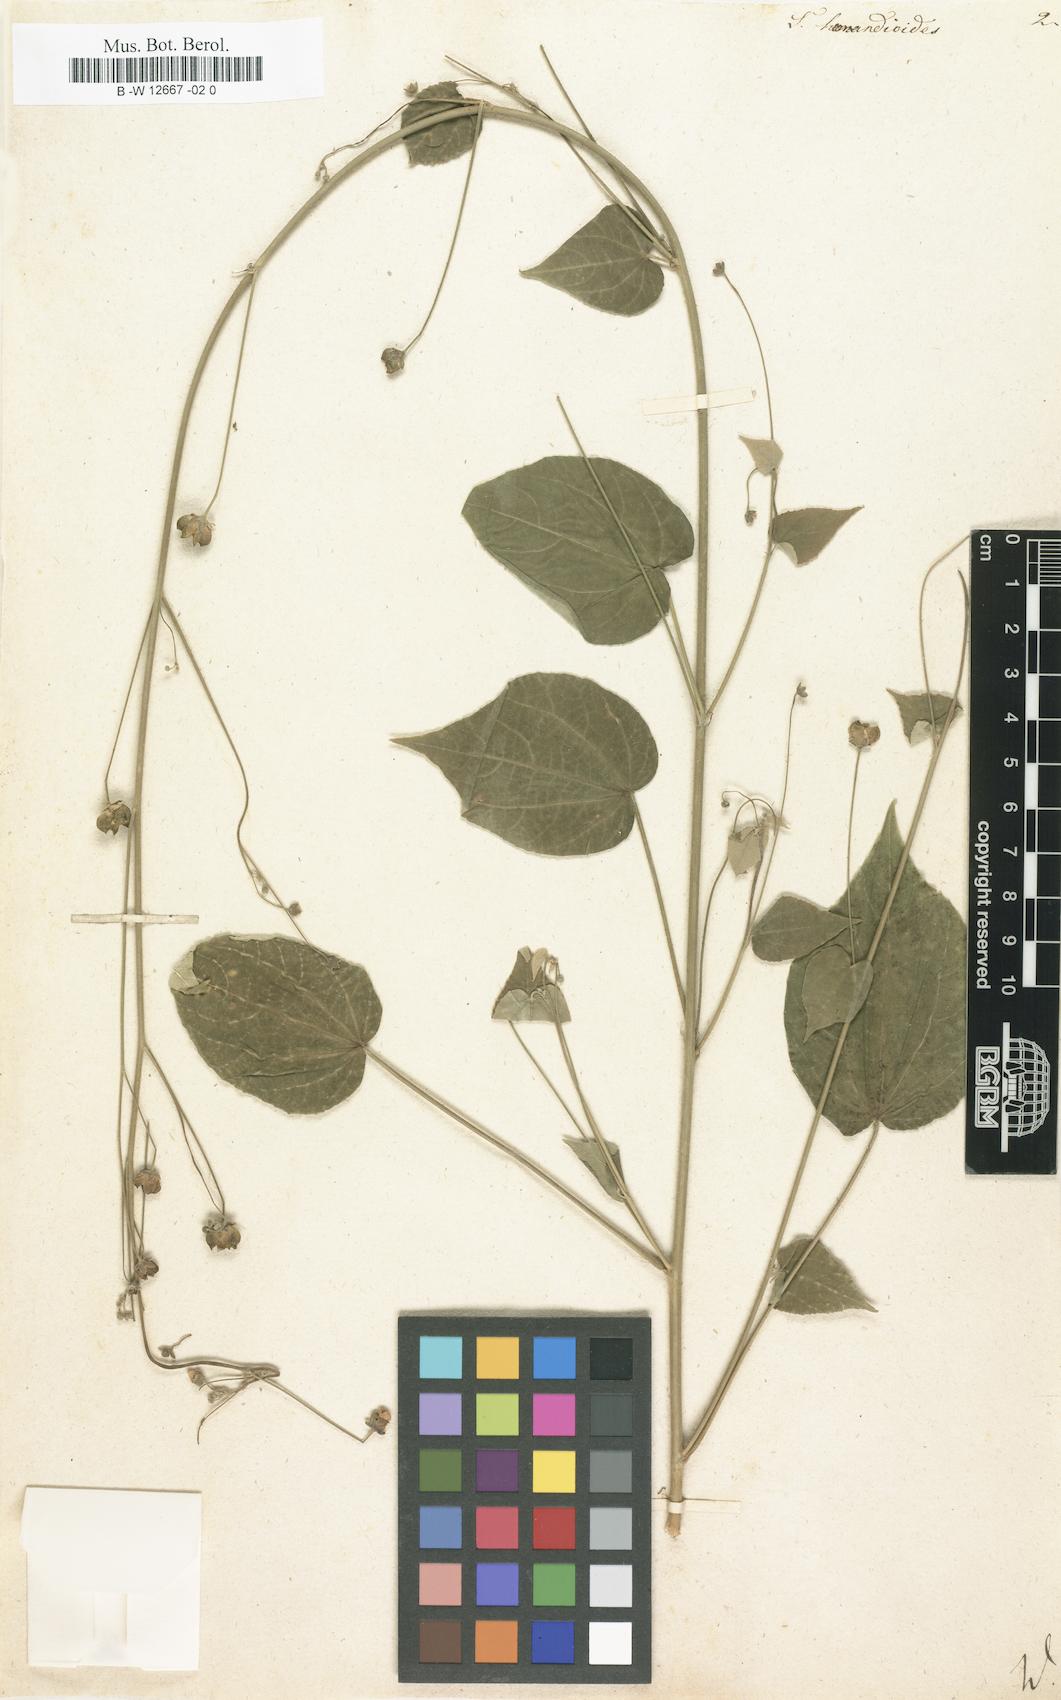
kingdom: Plantae
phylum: Tracheophyta
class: Magnoliopsida
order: Malvales
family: Malvaceae
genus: Wissadula
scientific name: Wissadula hernandioides
